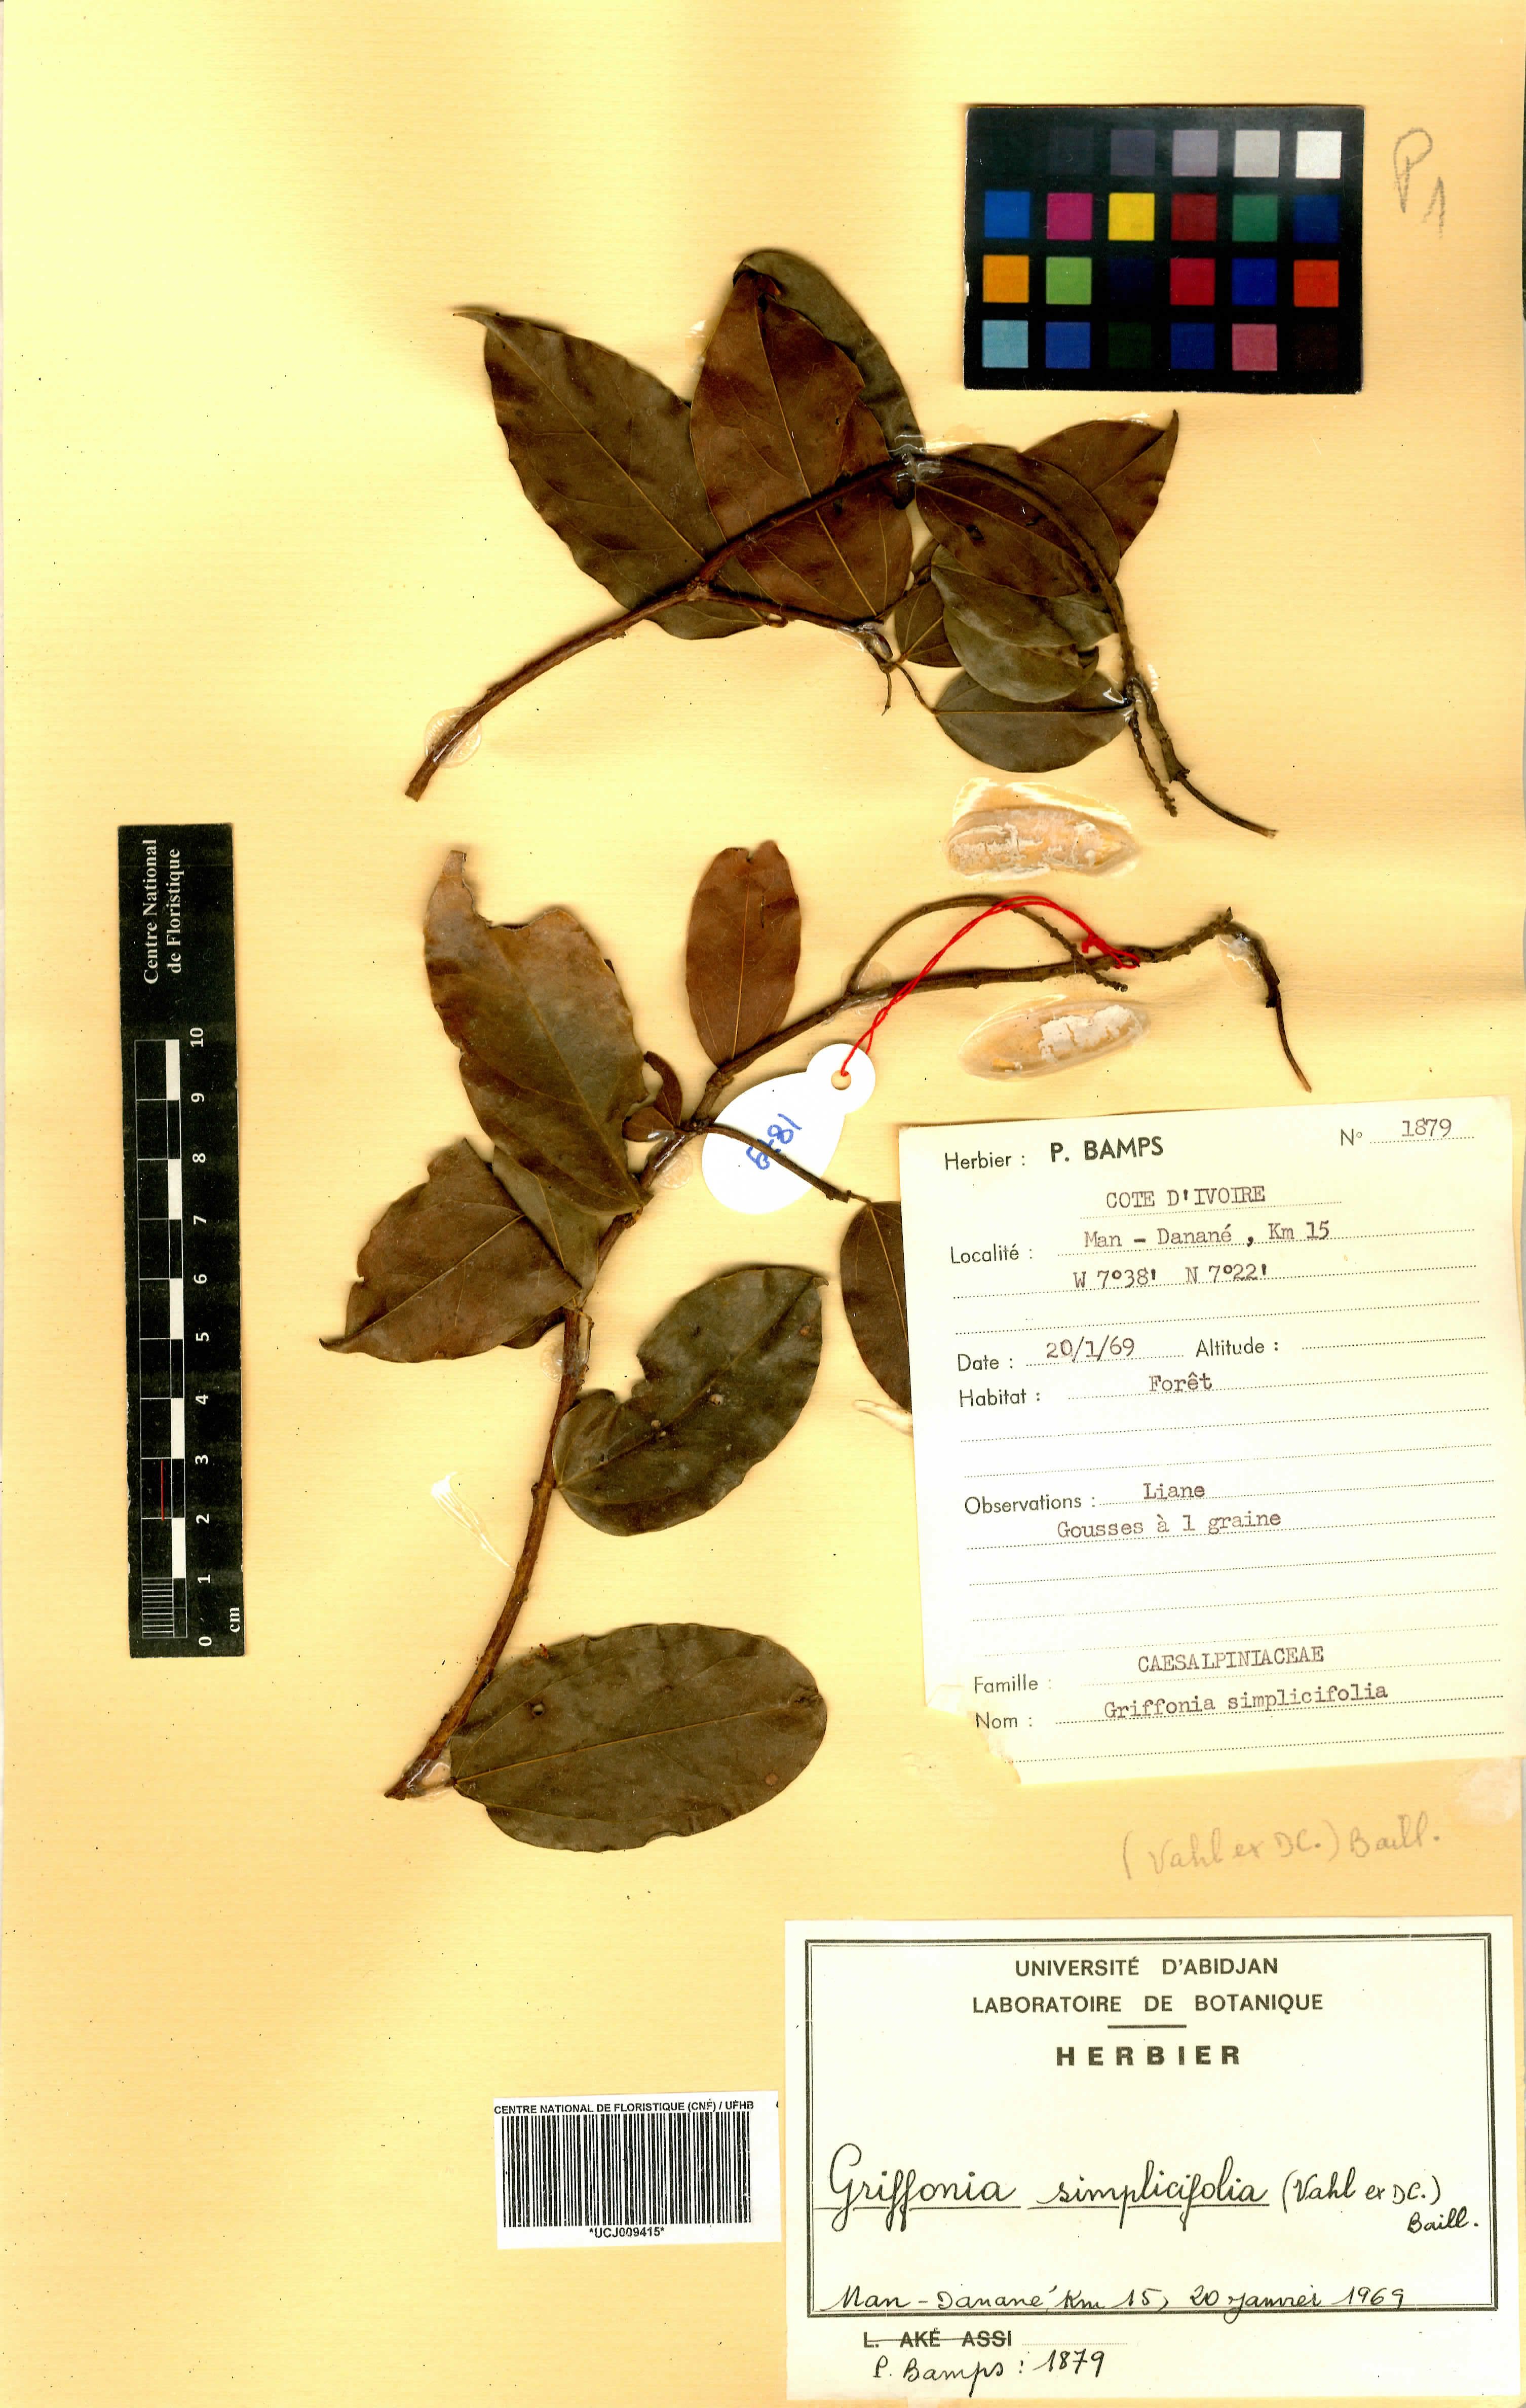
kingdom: Plantae
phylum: Tracheophyta
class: Magnoliopsida
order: Fabales
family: Fabaceae
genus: Griffonia
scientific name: Griffonia simplicifolia
